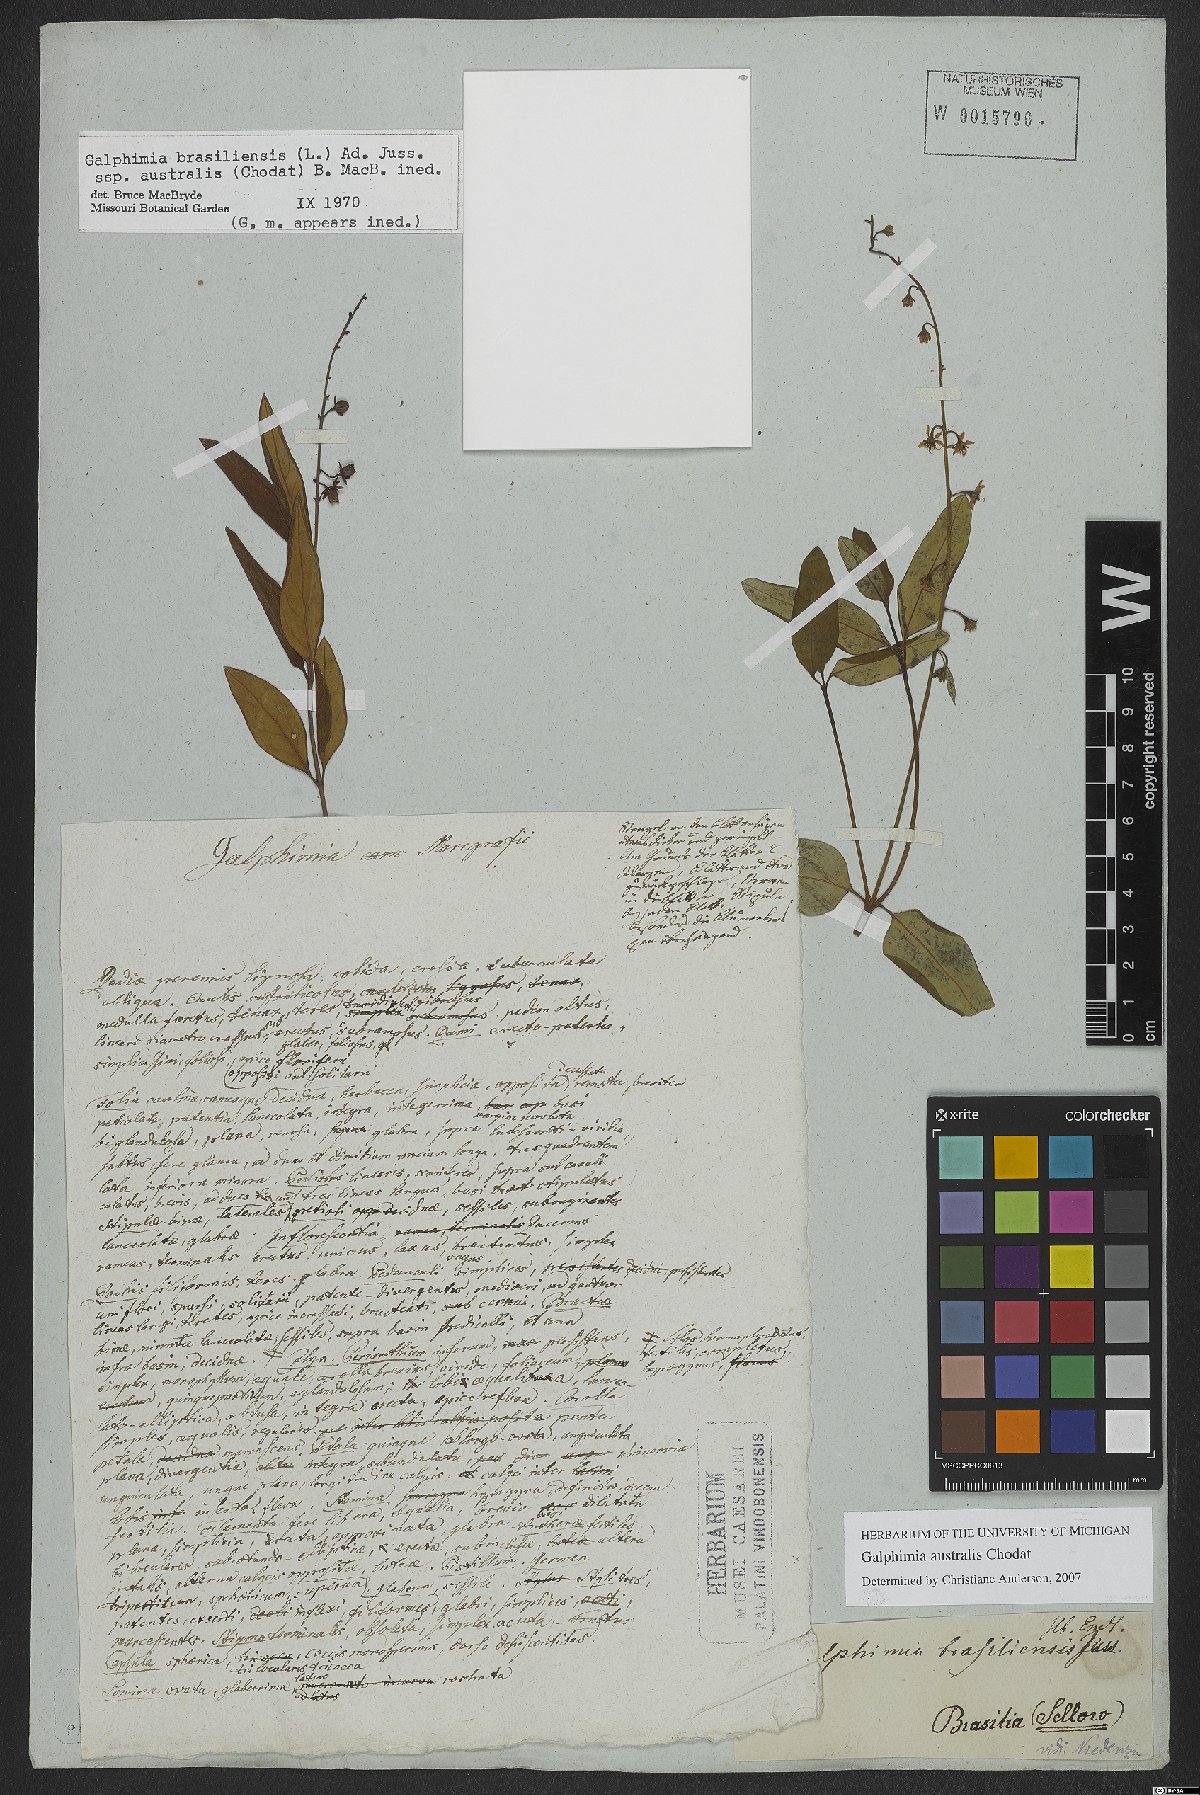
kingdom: Plantae
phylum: Tracheophyta
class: Magnoliopsida
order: Malpighiales
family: Malpighiaceae
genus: Galphimia
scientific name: Galphimia australis
